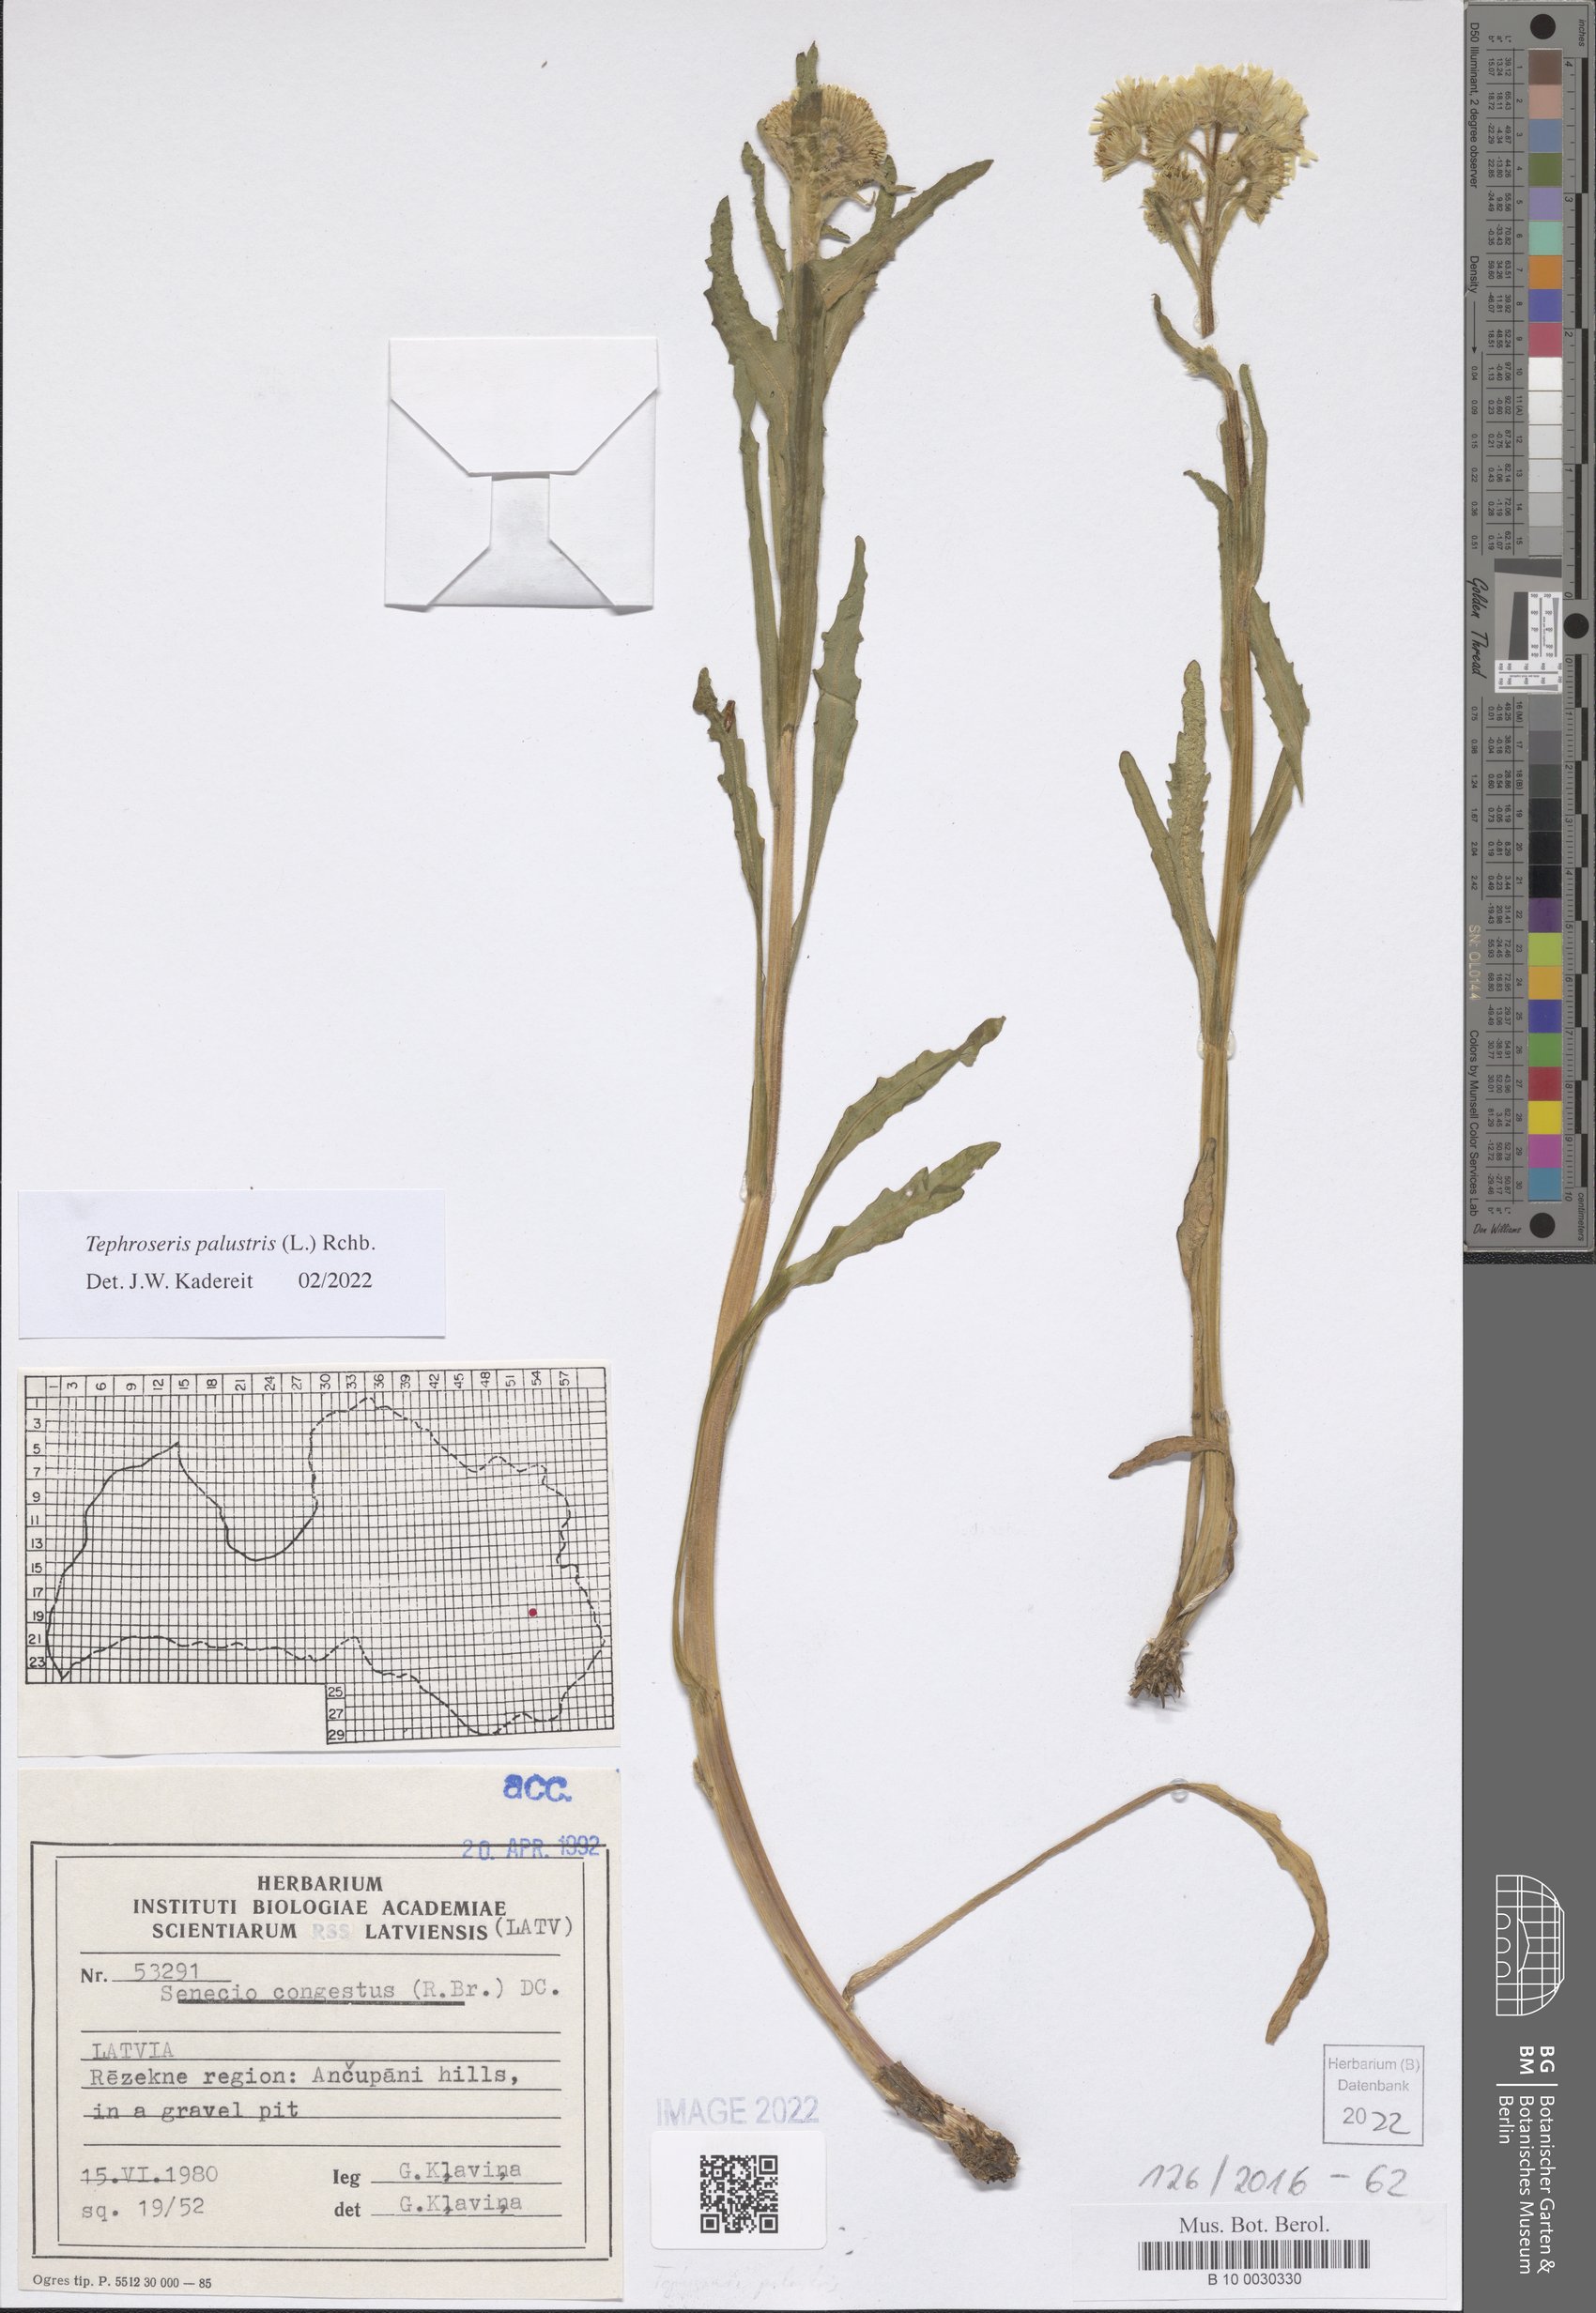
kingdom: Plantae
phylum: Tracheophyta
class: Magnoliopsida
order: Asterales
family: Asteraceae
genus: Tephroseris
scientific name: Tephroseris palustris
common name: Marsh fleawort
